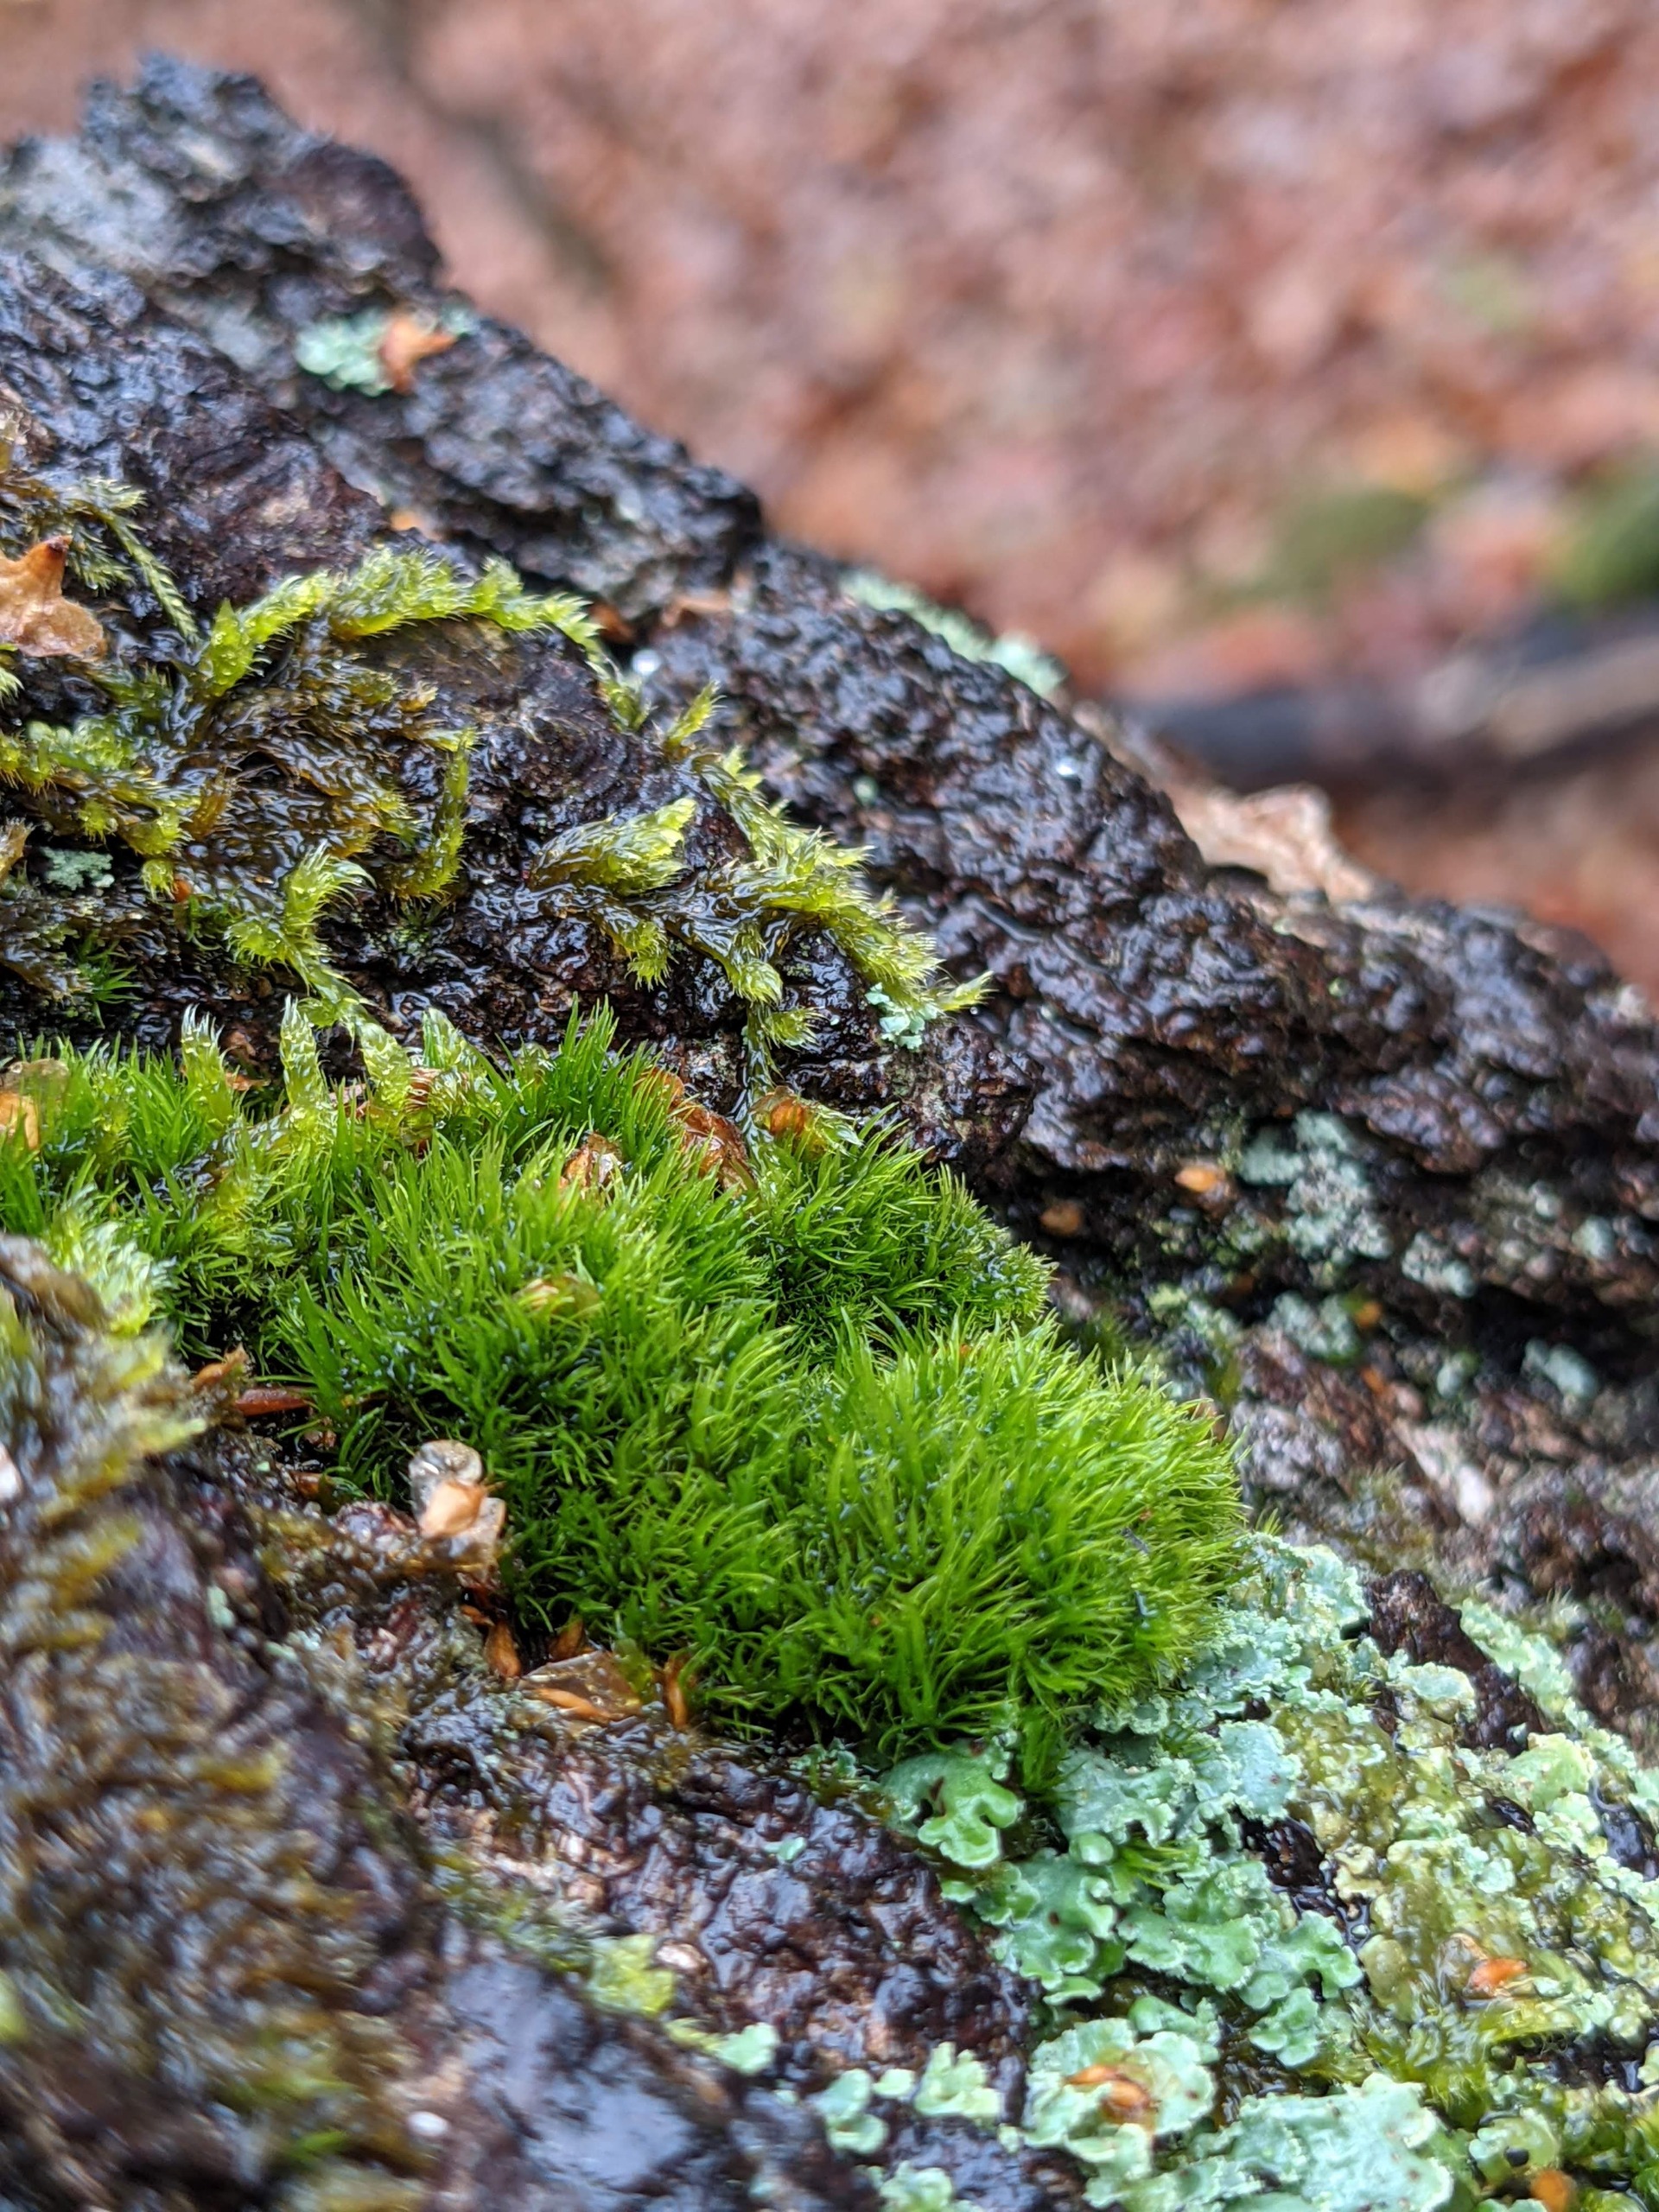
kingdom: Plantae
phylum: Bryophyta
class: Bryopsida
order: Dicranales
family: Dicranaceae
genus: Orthodicranum
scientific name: Orthodicranum montanum
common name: Tæt tyndvinge
